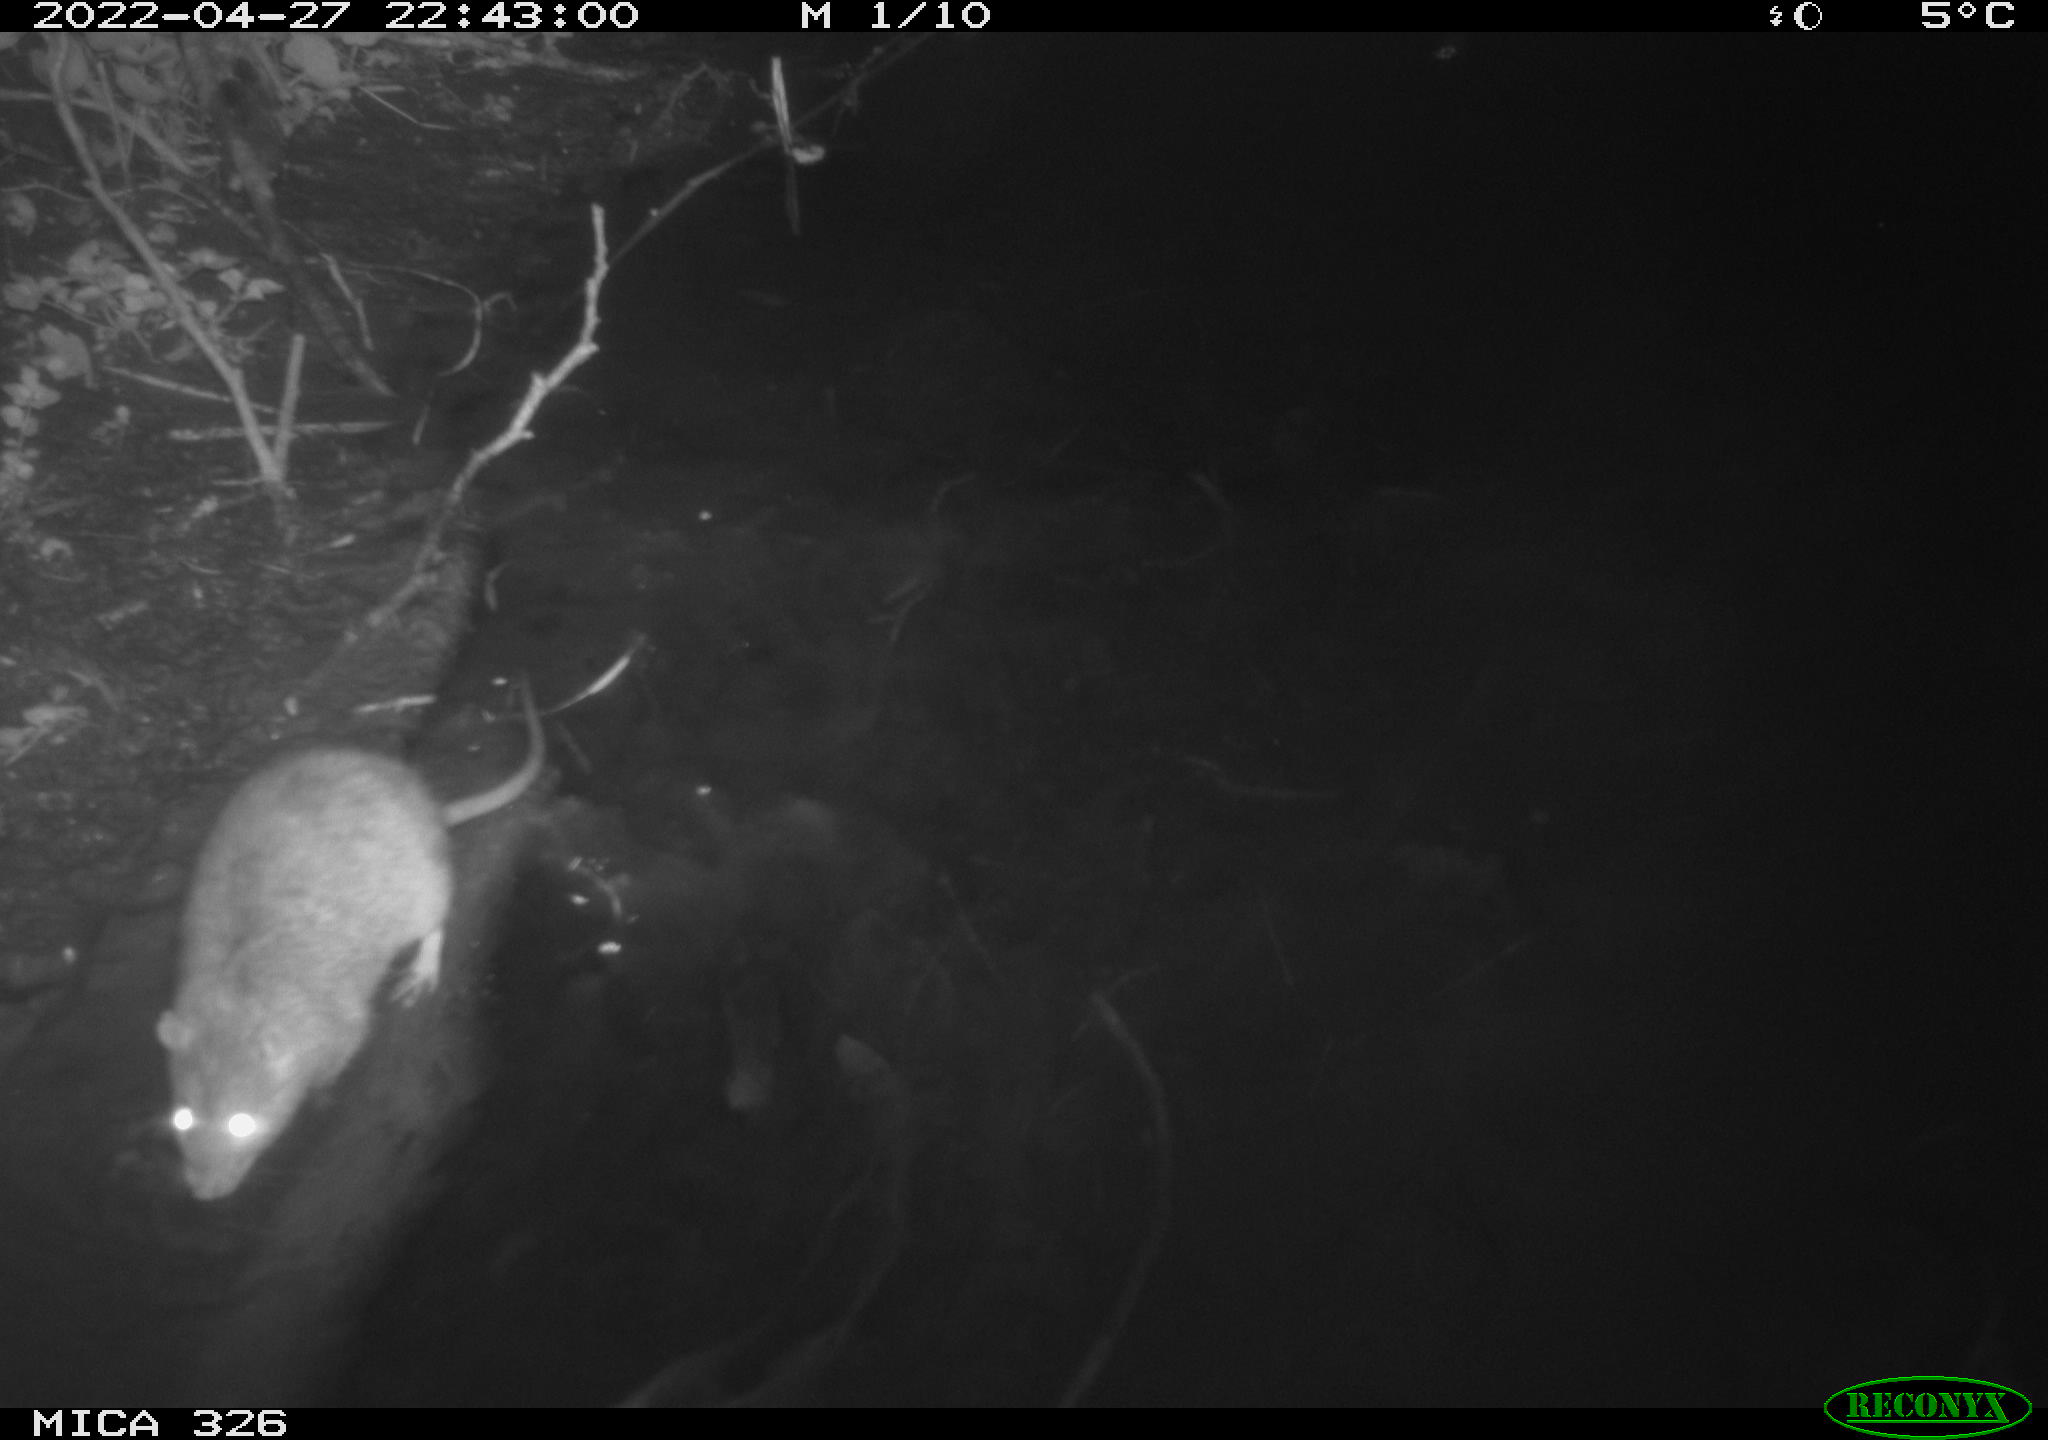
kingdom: Animalia
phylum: Chordata
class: Mammalia
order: Rodentia
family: Muridae
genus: Rattus
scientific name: Rattus norvegicus
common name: Brown rat
